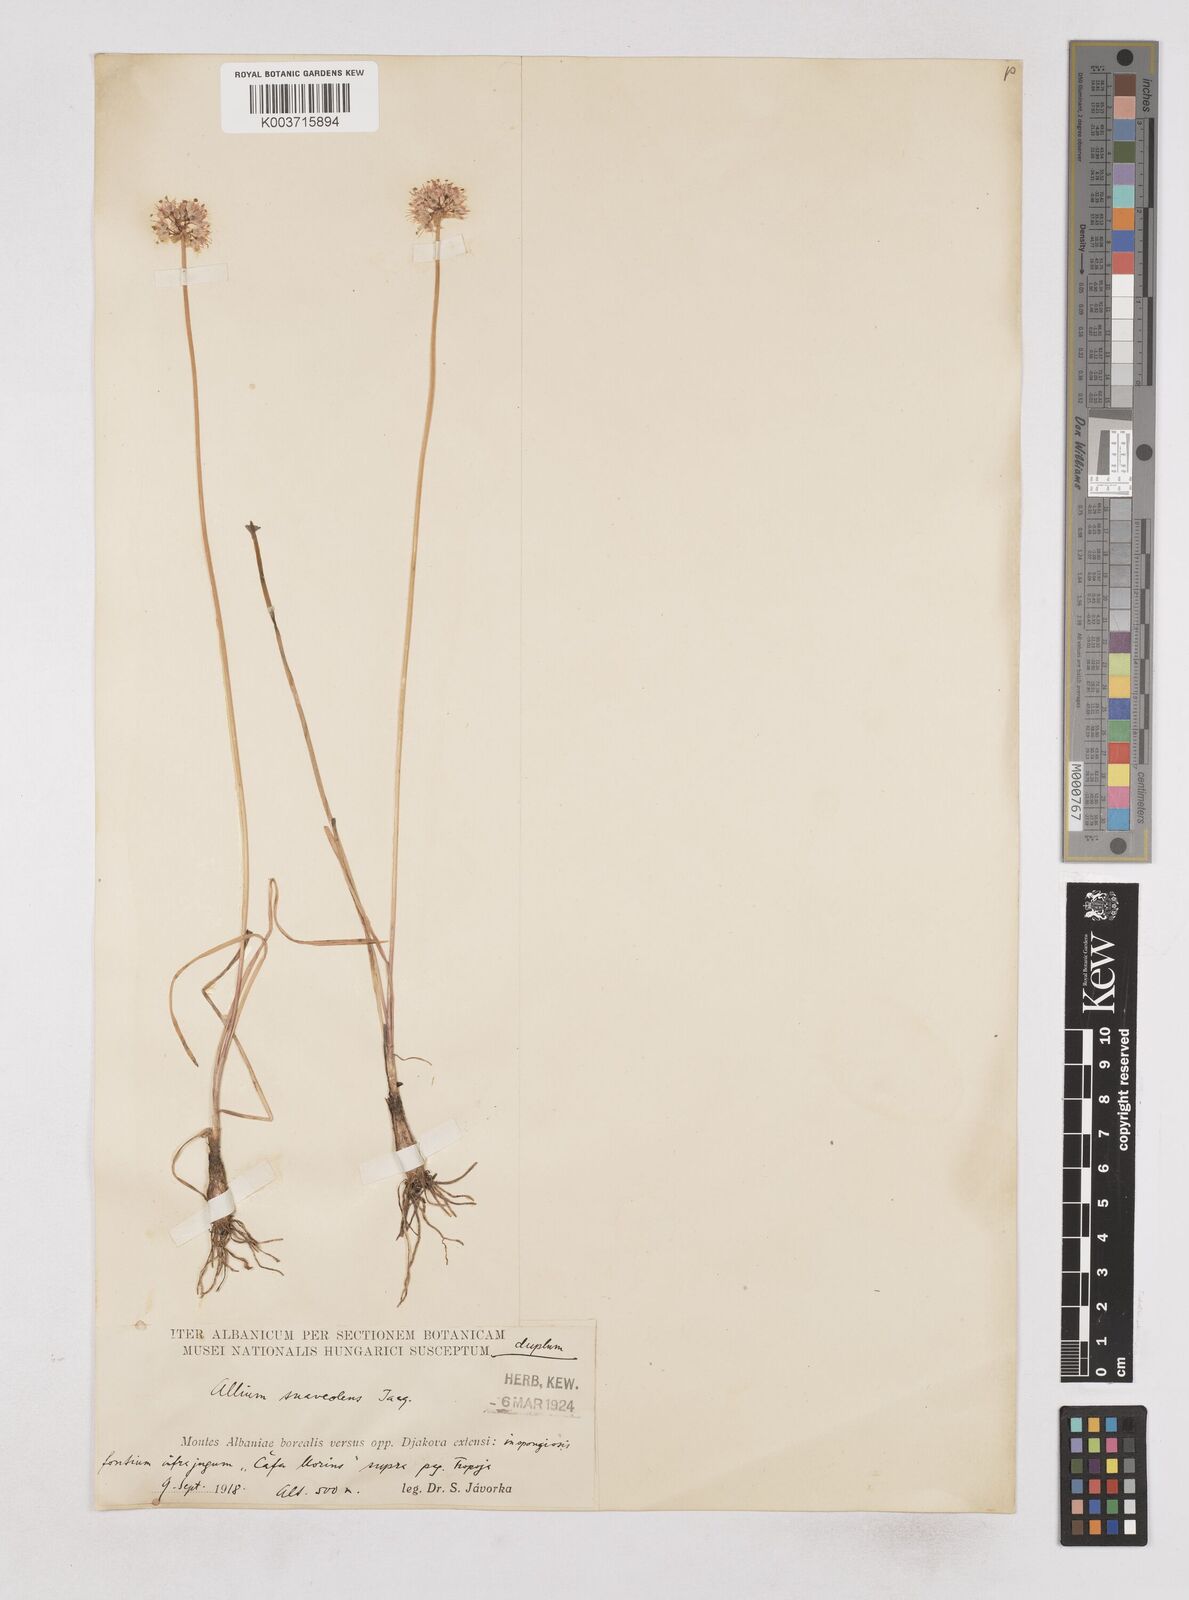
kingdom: Plantae
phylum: Tracheophyta
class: Liliopsida
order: Asparagales
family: Amaryllidaceae
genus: Allium
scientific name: Allium ericetorum
